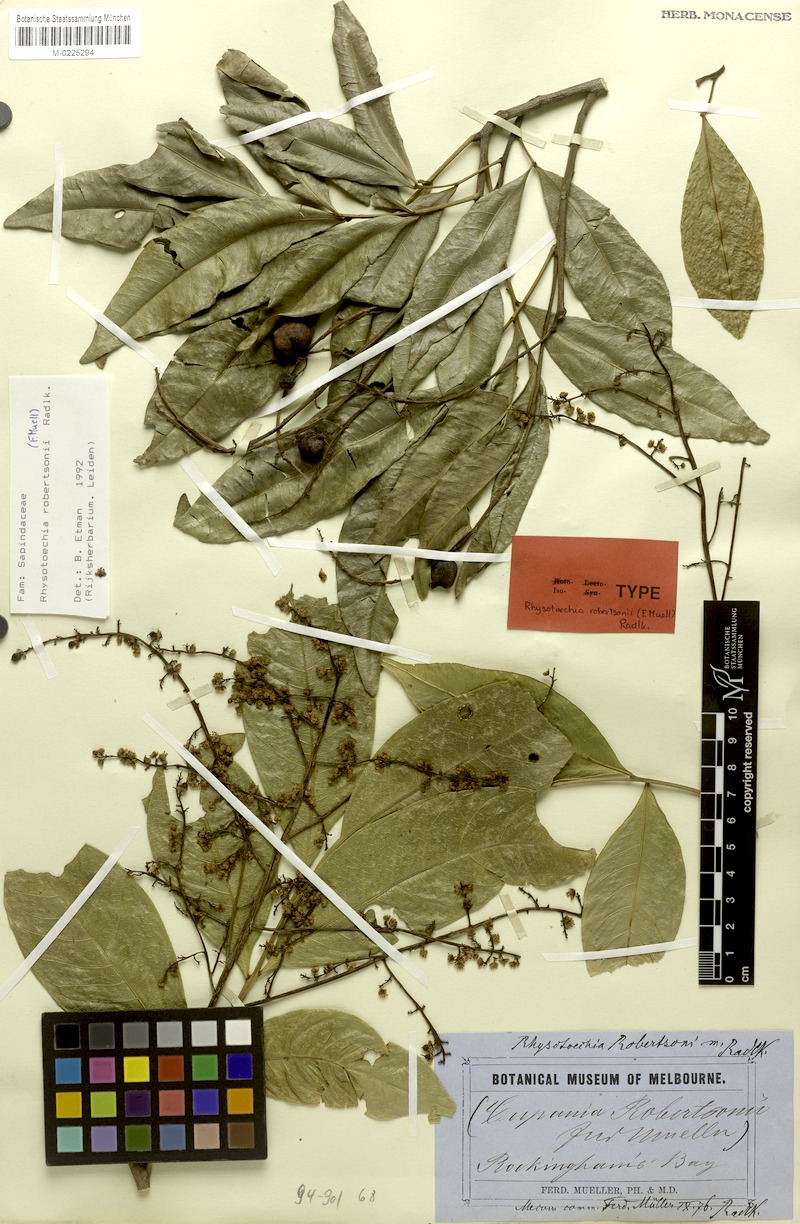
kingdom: Plantae
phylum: Tracheophyta
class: Magnoliopsida
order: Sapindales
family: Sapindaceae
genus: Rhysotoechia
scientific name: Rhysotoechia robertsonii
